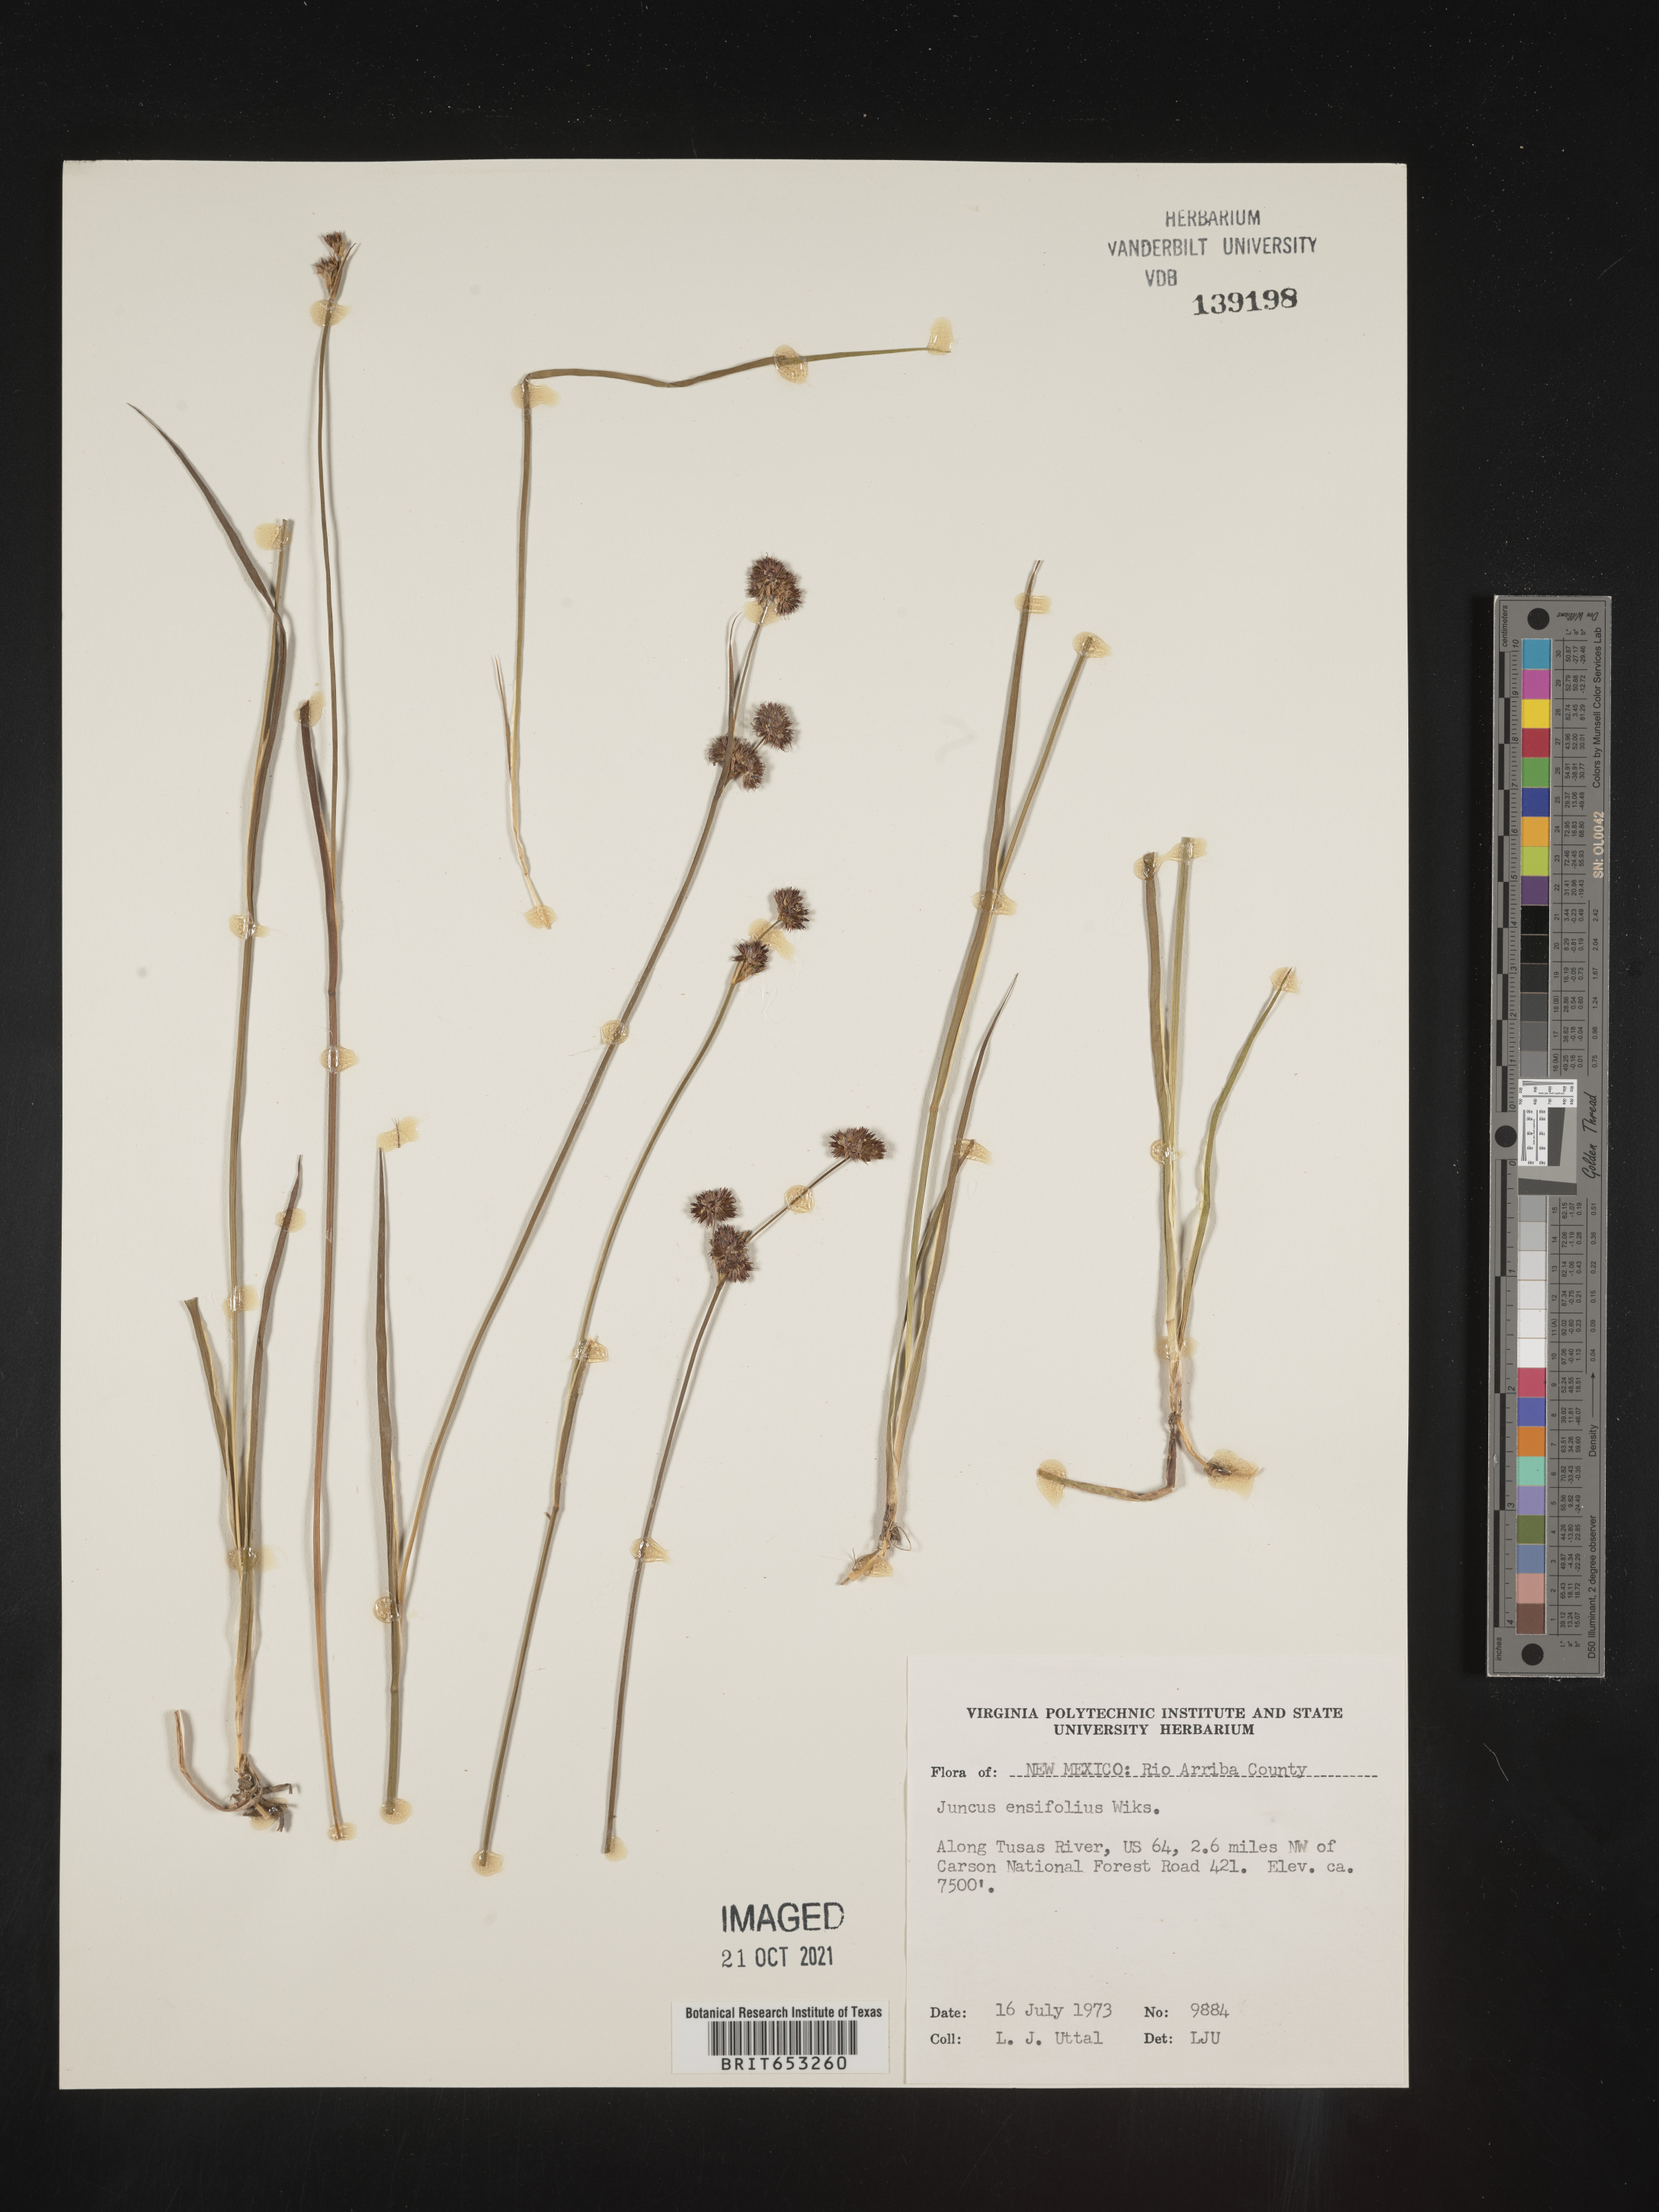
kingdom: Plantae
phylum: Tracheophyta
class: Liliopsida
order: Poales
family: Juncaceae
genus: Juncus
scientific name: Juncus ensifolius
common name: Sword-leaved rush
